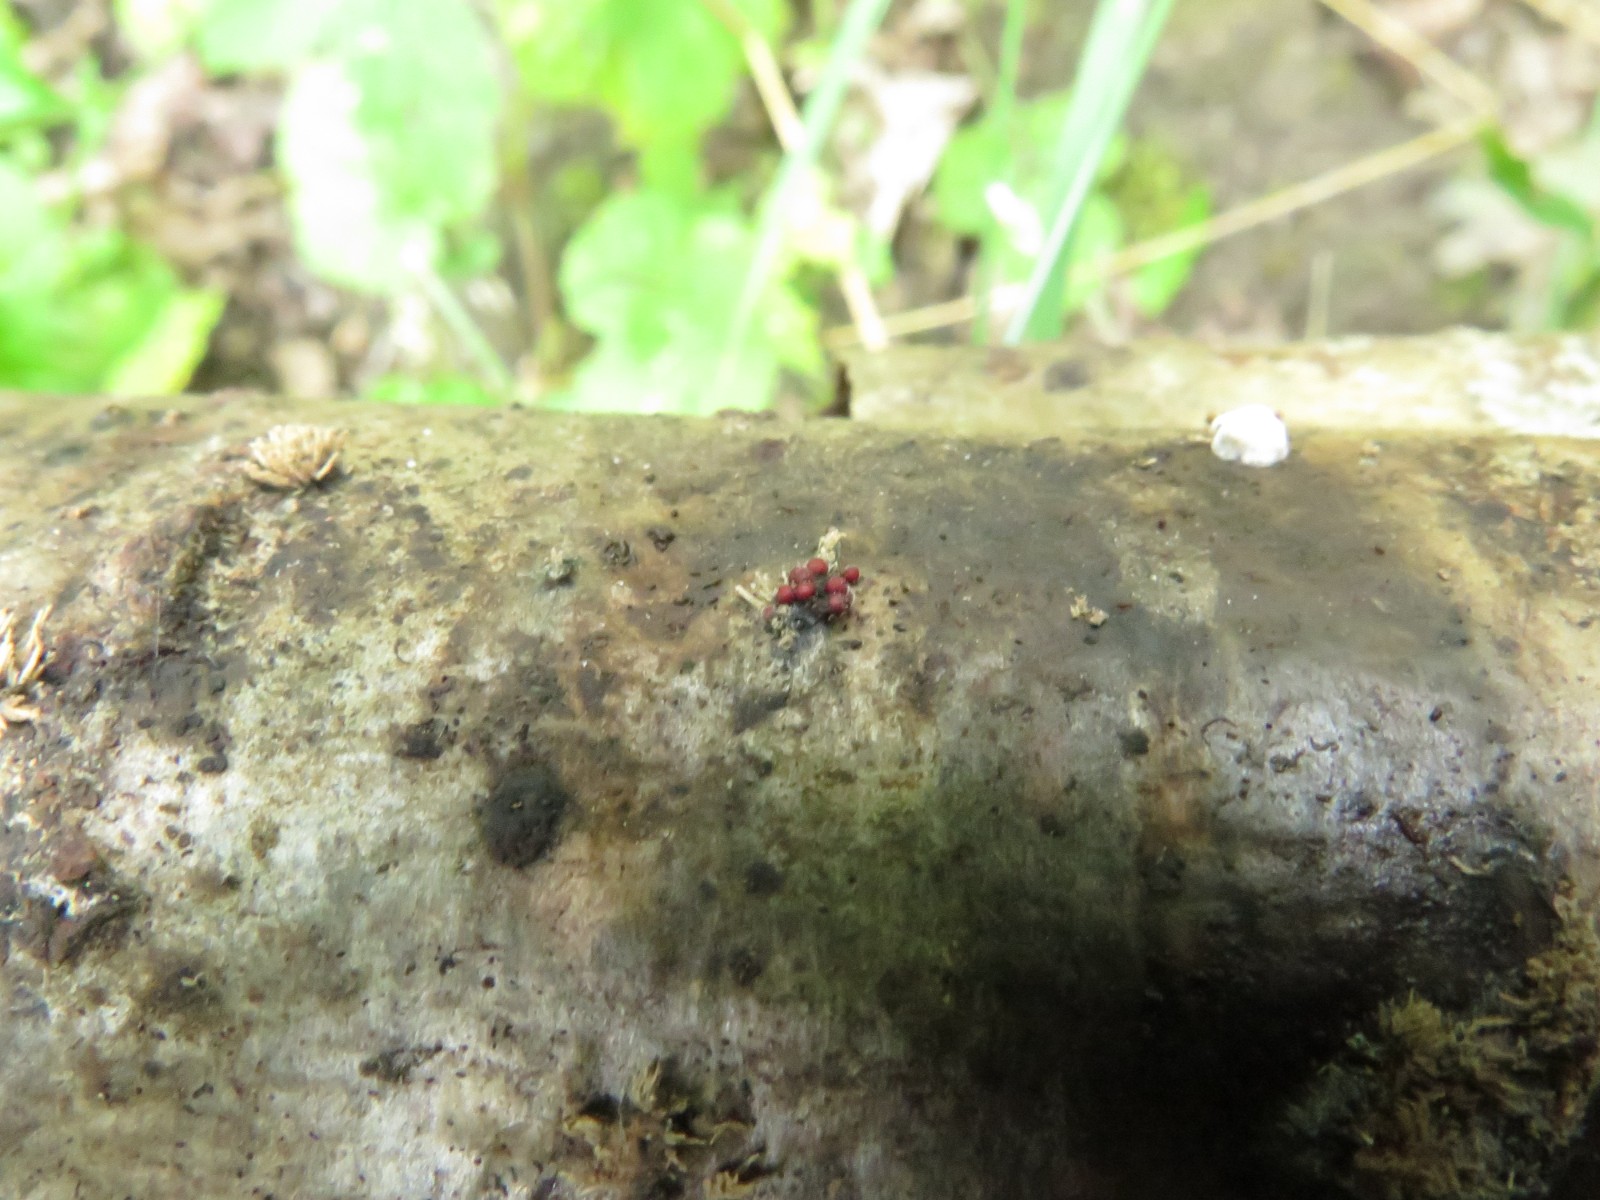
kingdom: Fungi
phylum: Ascomycota
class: Sordariomycetes
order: Hypocreales
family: Nectriaceae
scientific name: Nectriaceae
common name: cinnobersvampfamilien
